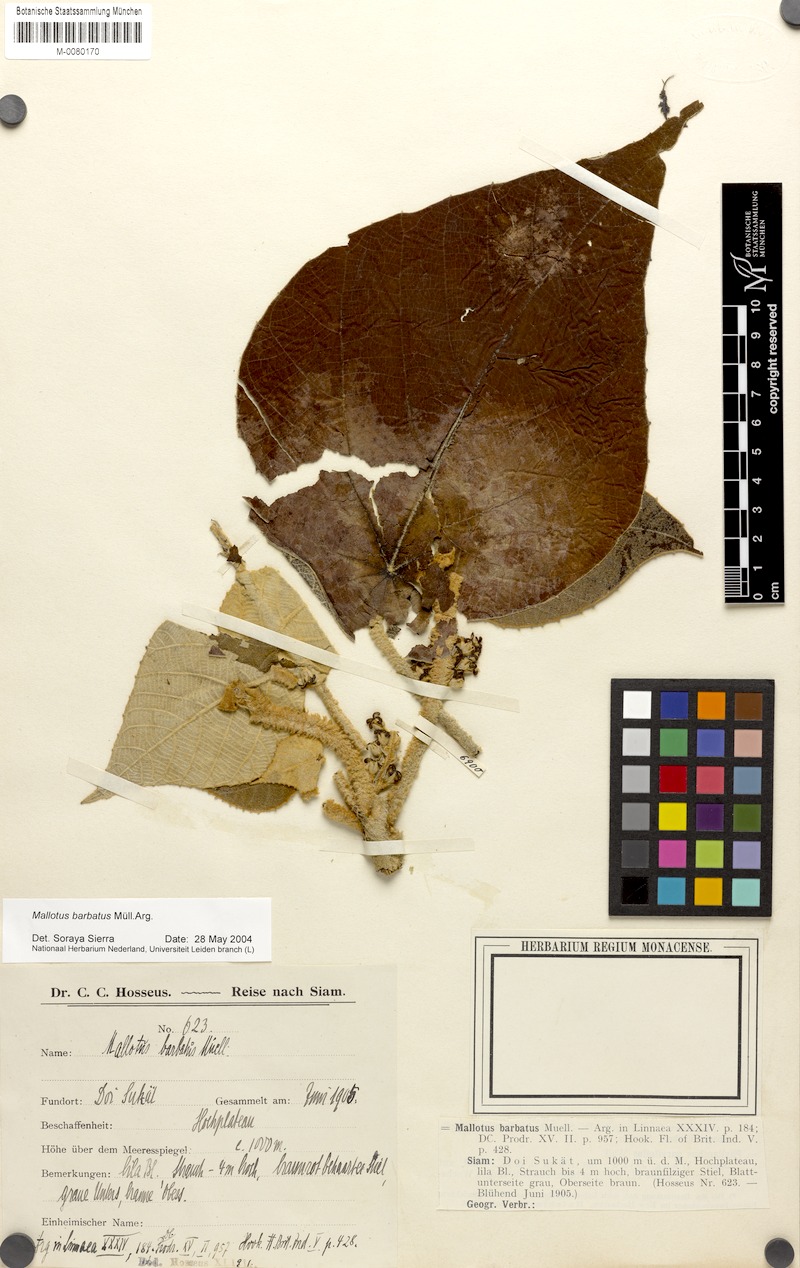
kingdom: Plantae
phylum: Tracheophyta
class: Magnoliopsida
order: Malpighiales
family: Euphorbiaceae
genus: Mallotus
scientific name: Mallotus barbatus
